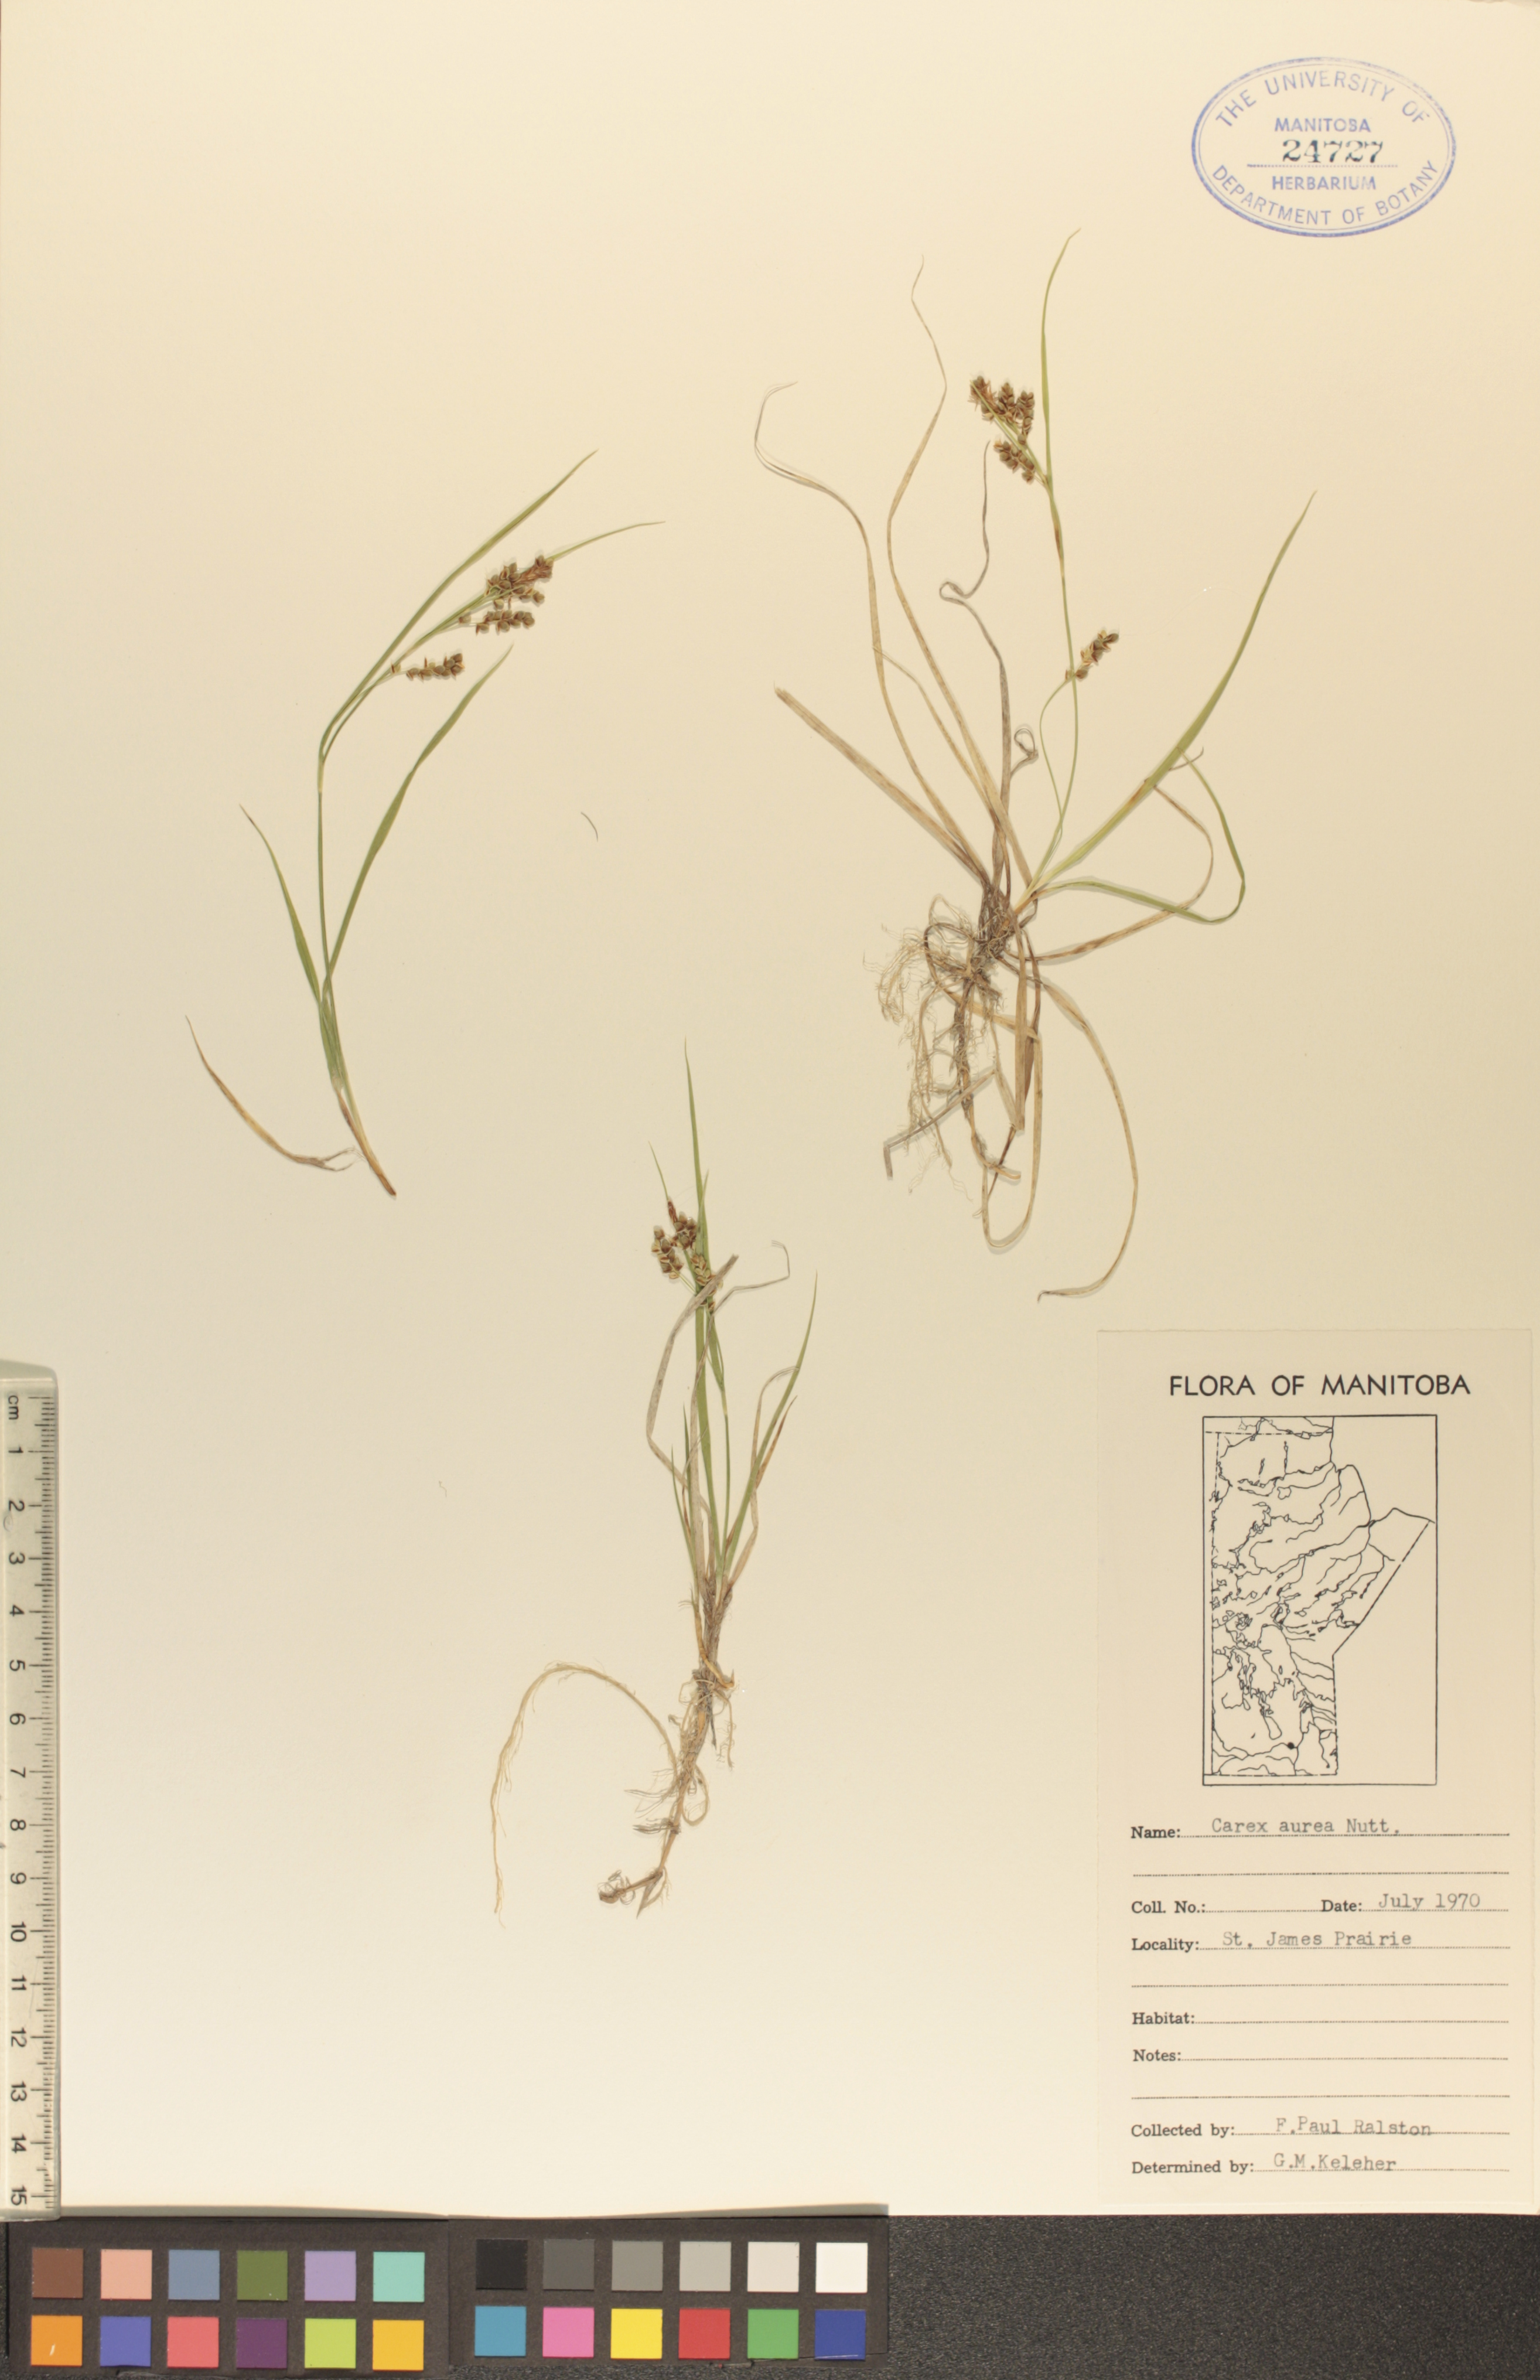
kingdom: Plantae
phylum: Tracheophyta
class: Liliopsida
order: Poales
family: Cyperaceae
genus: Carex
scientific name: Carex aurea
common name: Golden sedge
